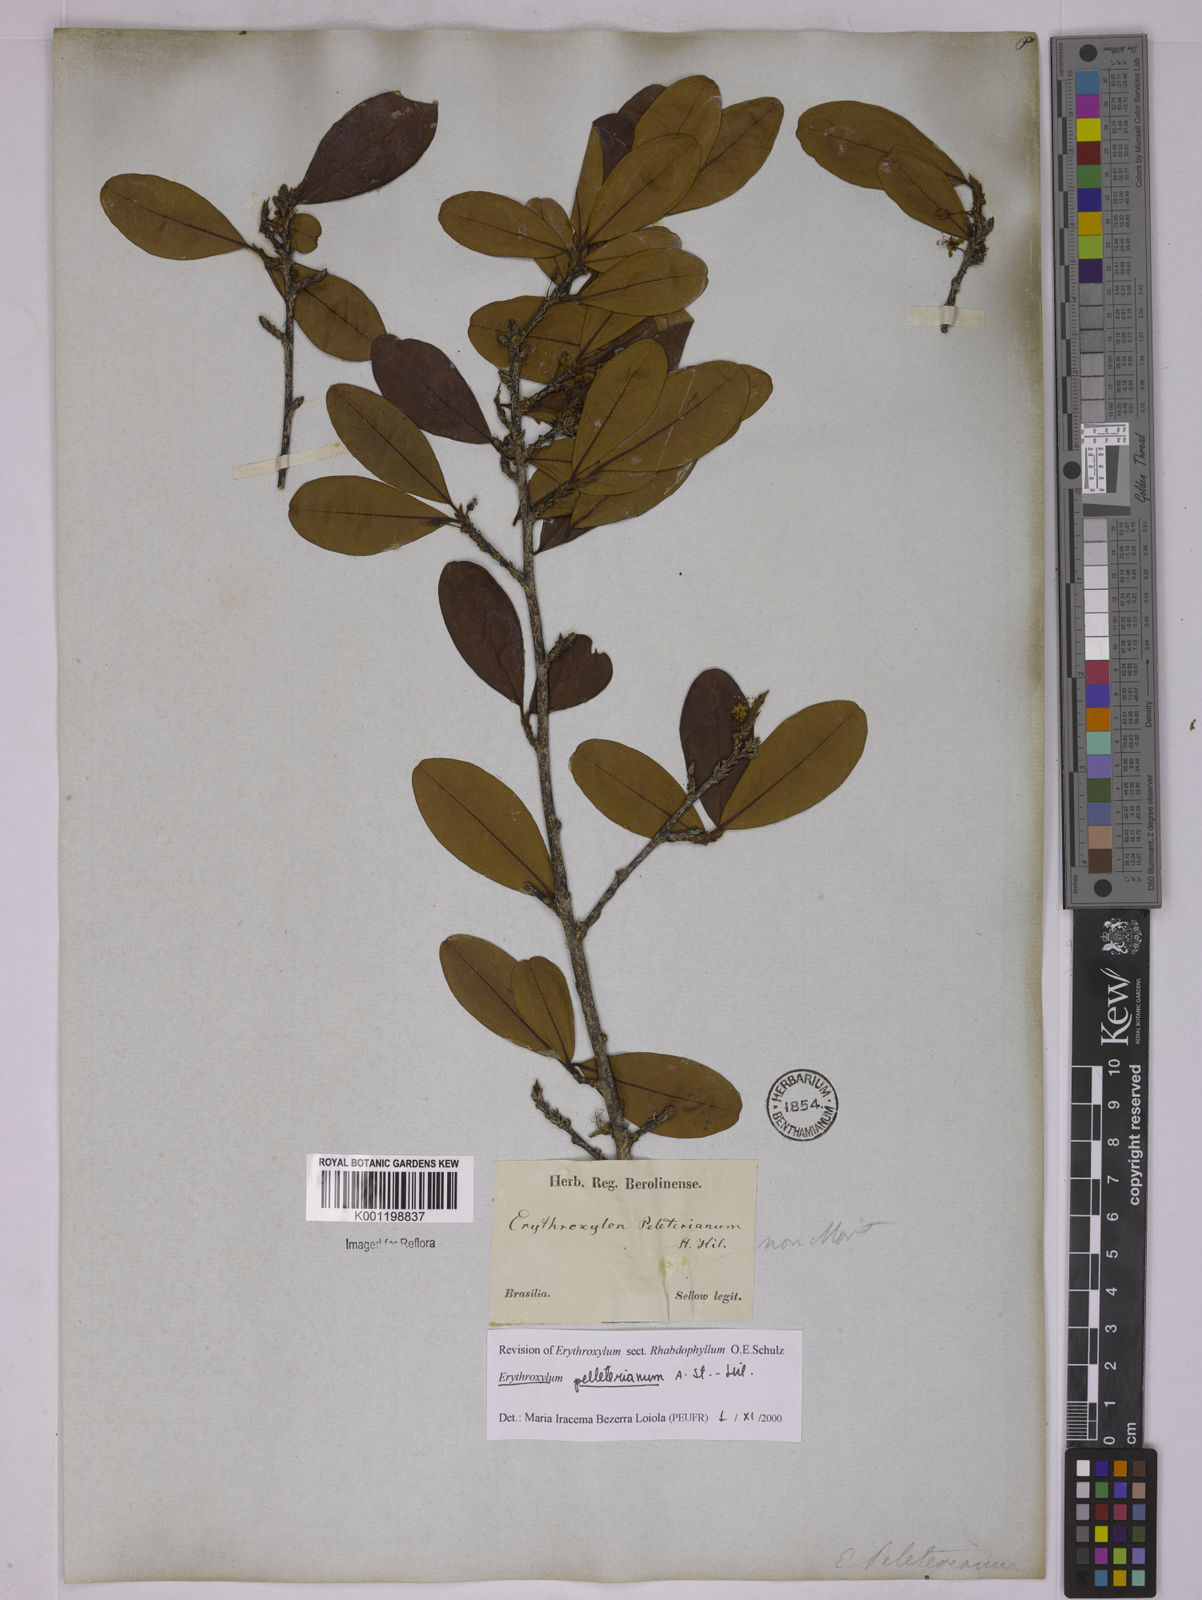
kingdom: Plantae
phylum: Tracheophyta
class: Magnoliopsida
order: Malpighiales
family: Erythroxylaceae
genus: Erythroxylum
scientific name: Erythroxylum pelleterianum
